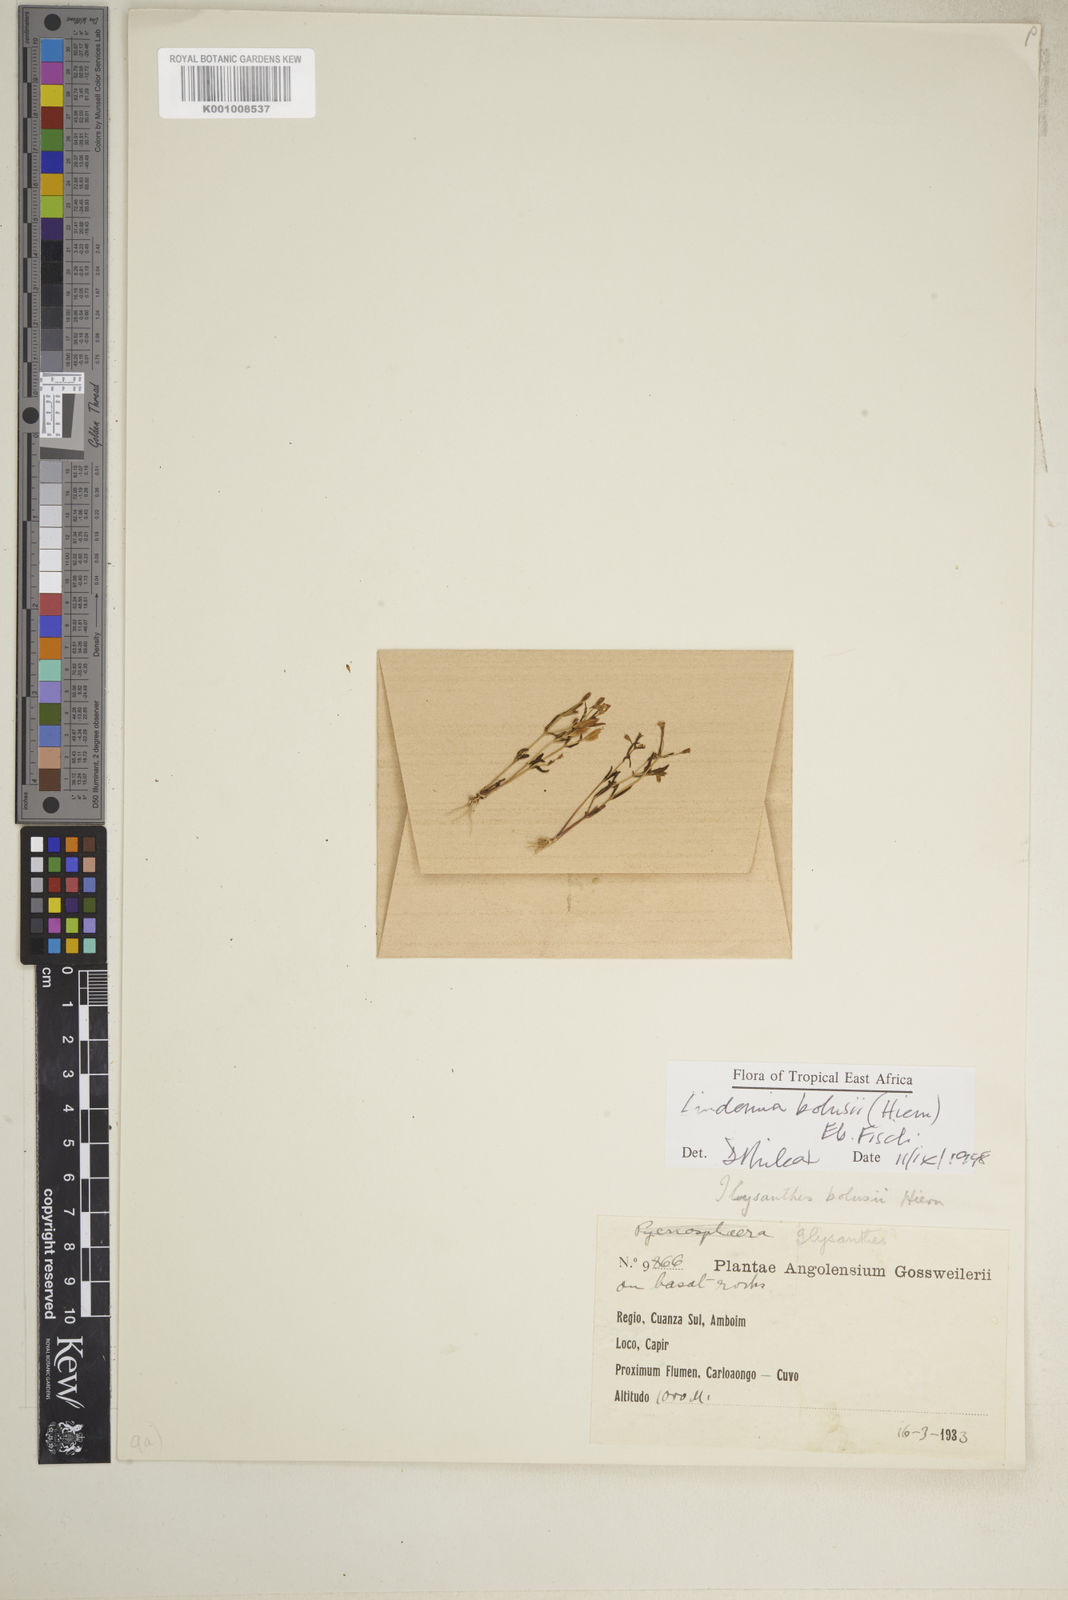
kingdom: Plantae
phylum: Tracheophyta
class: Magnoliopsida
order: Lamiales
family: Linderniaceae
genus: Linderniella
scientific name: Linderniella bolusii
